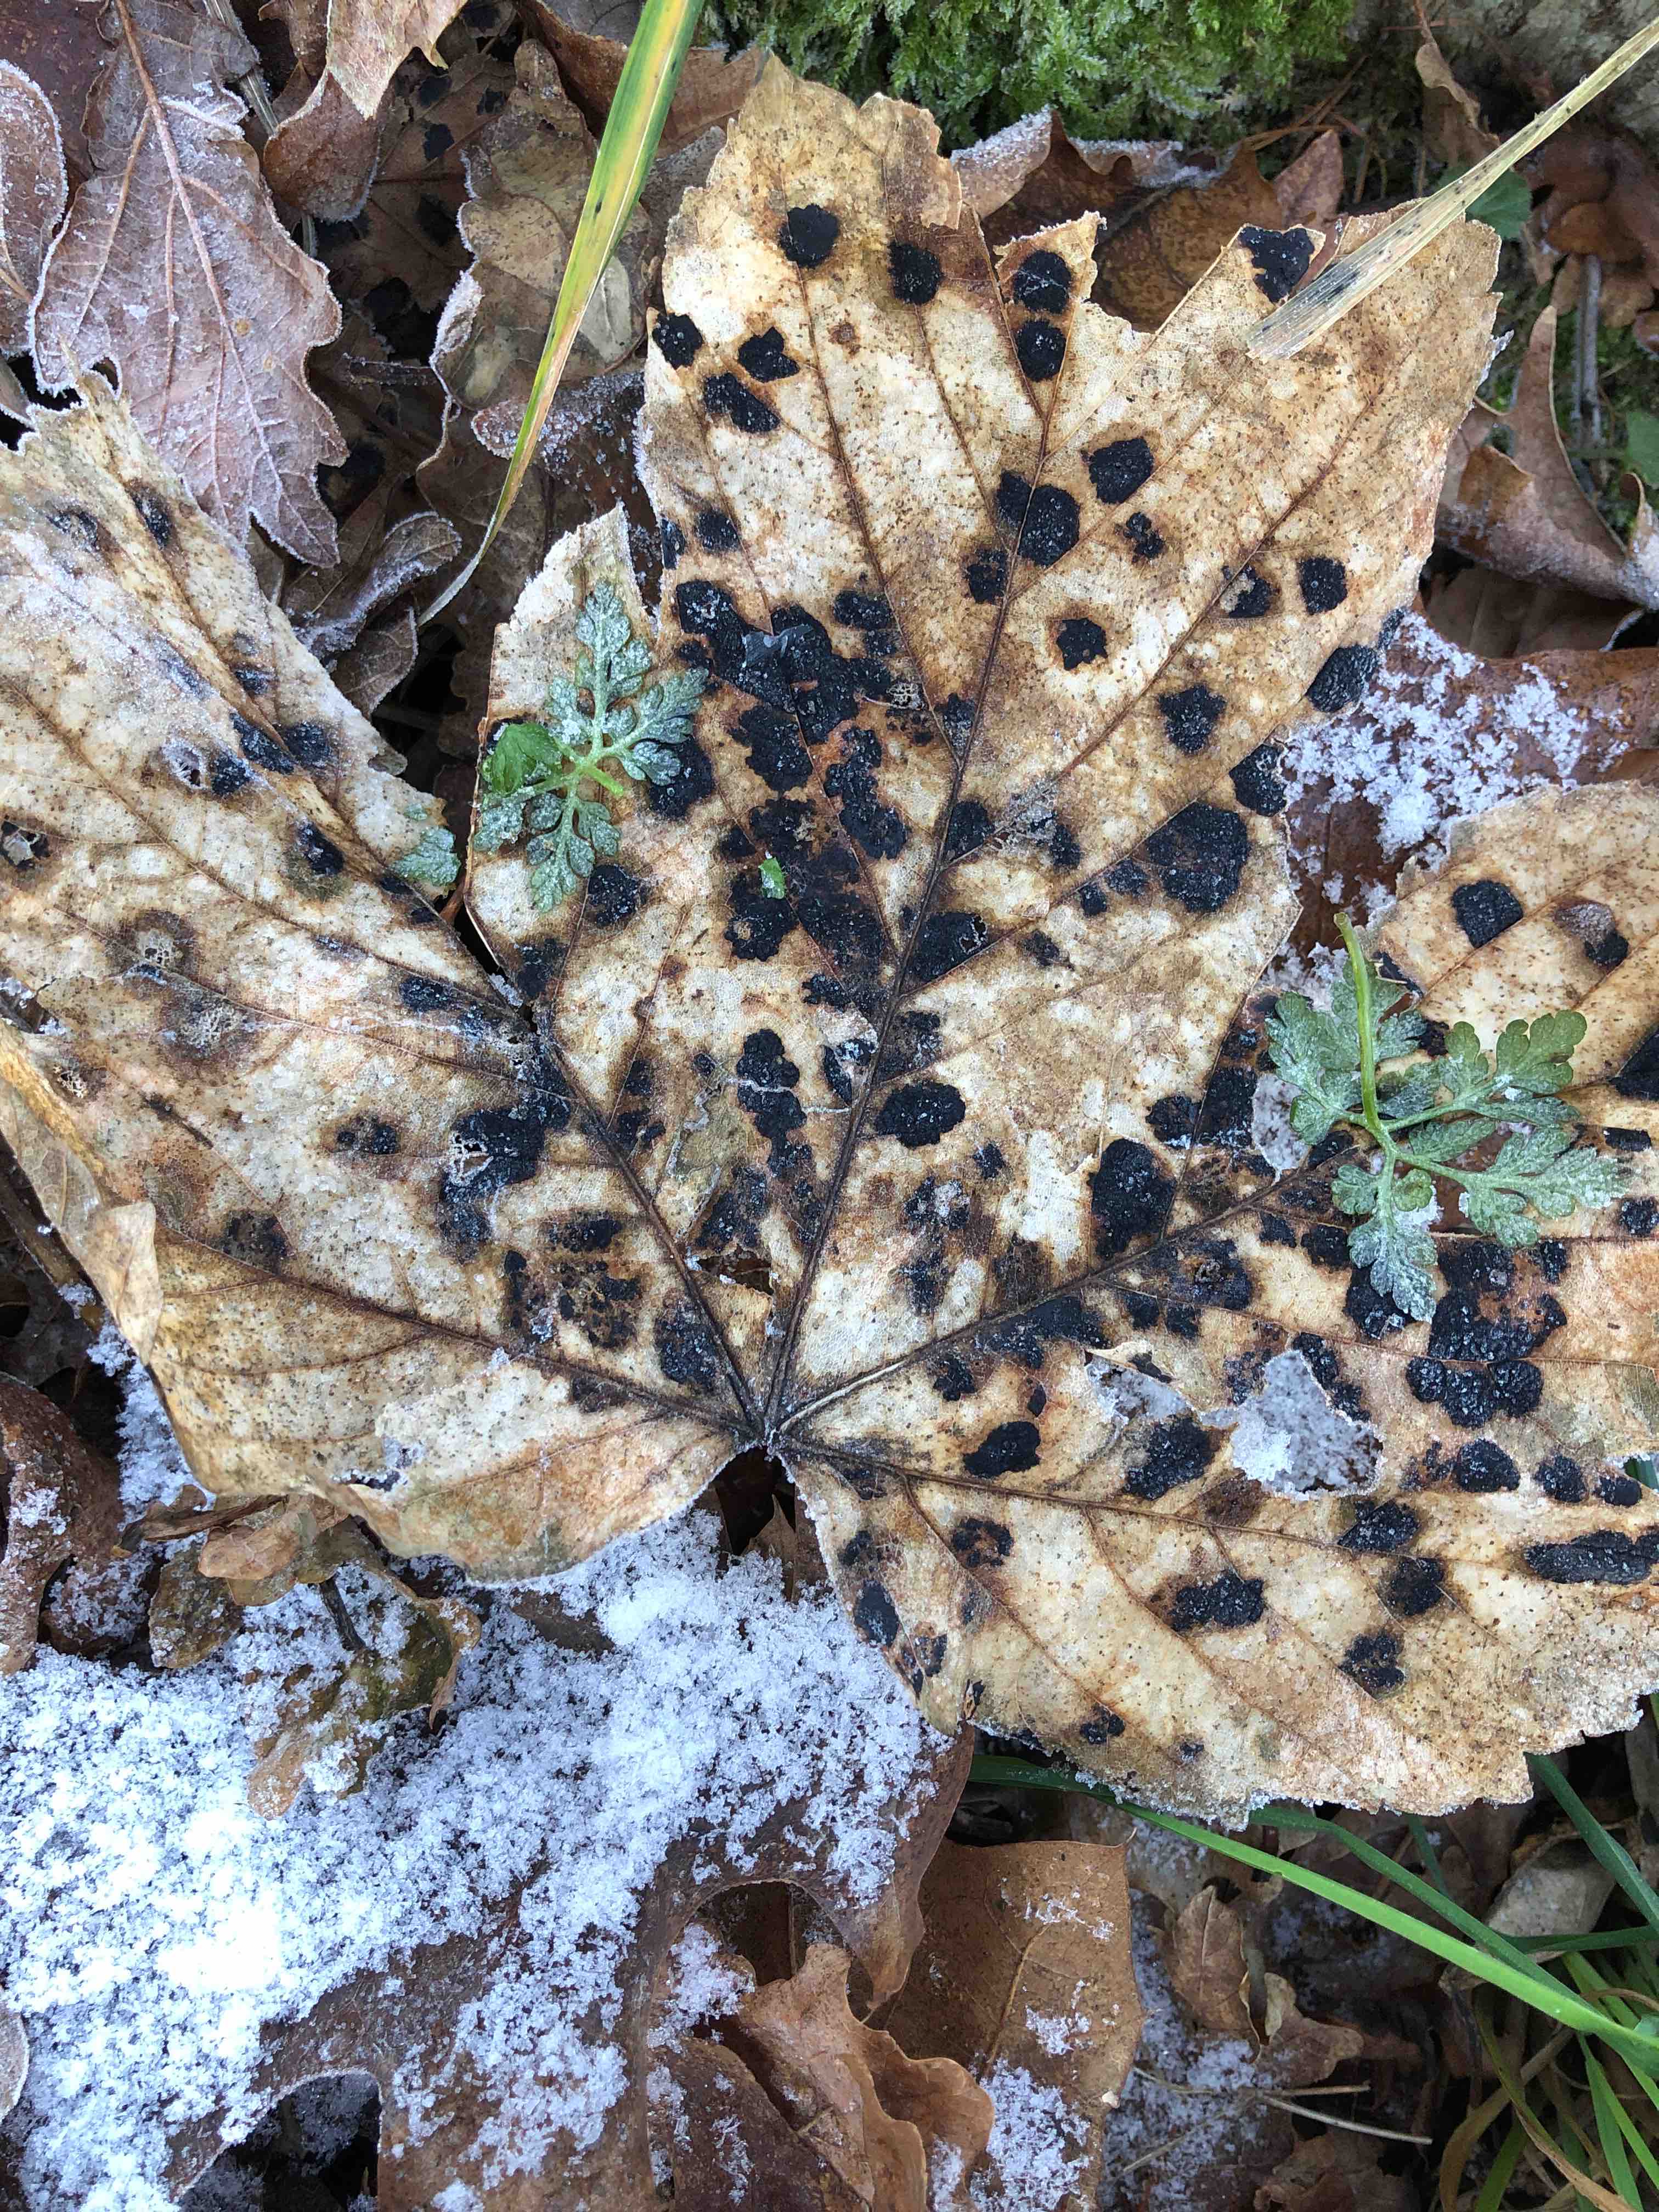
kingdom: Fungi
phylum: Ascomycota
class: Leotiomycetes
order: Rhytismatales
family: Rhytismataceae
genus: Rhytisma
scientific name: Rhytisma acerinum
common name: ahorn-rynkeplet
